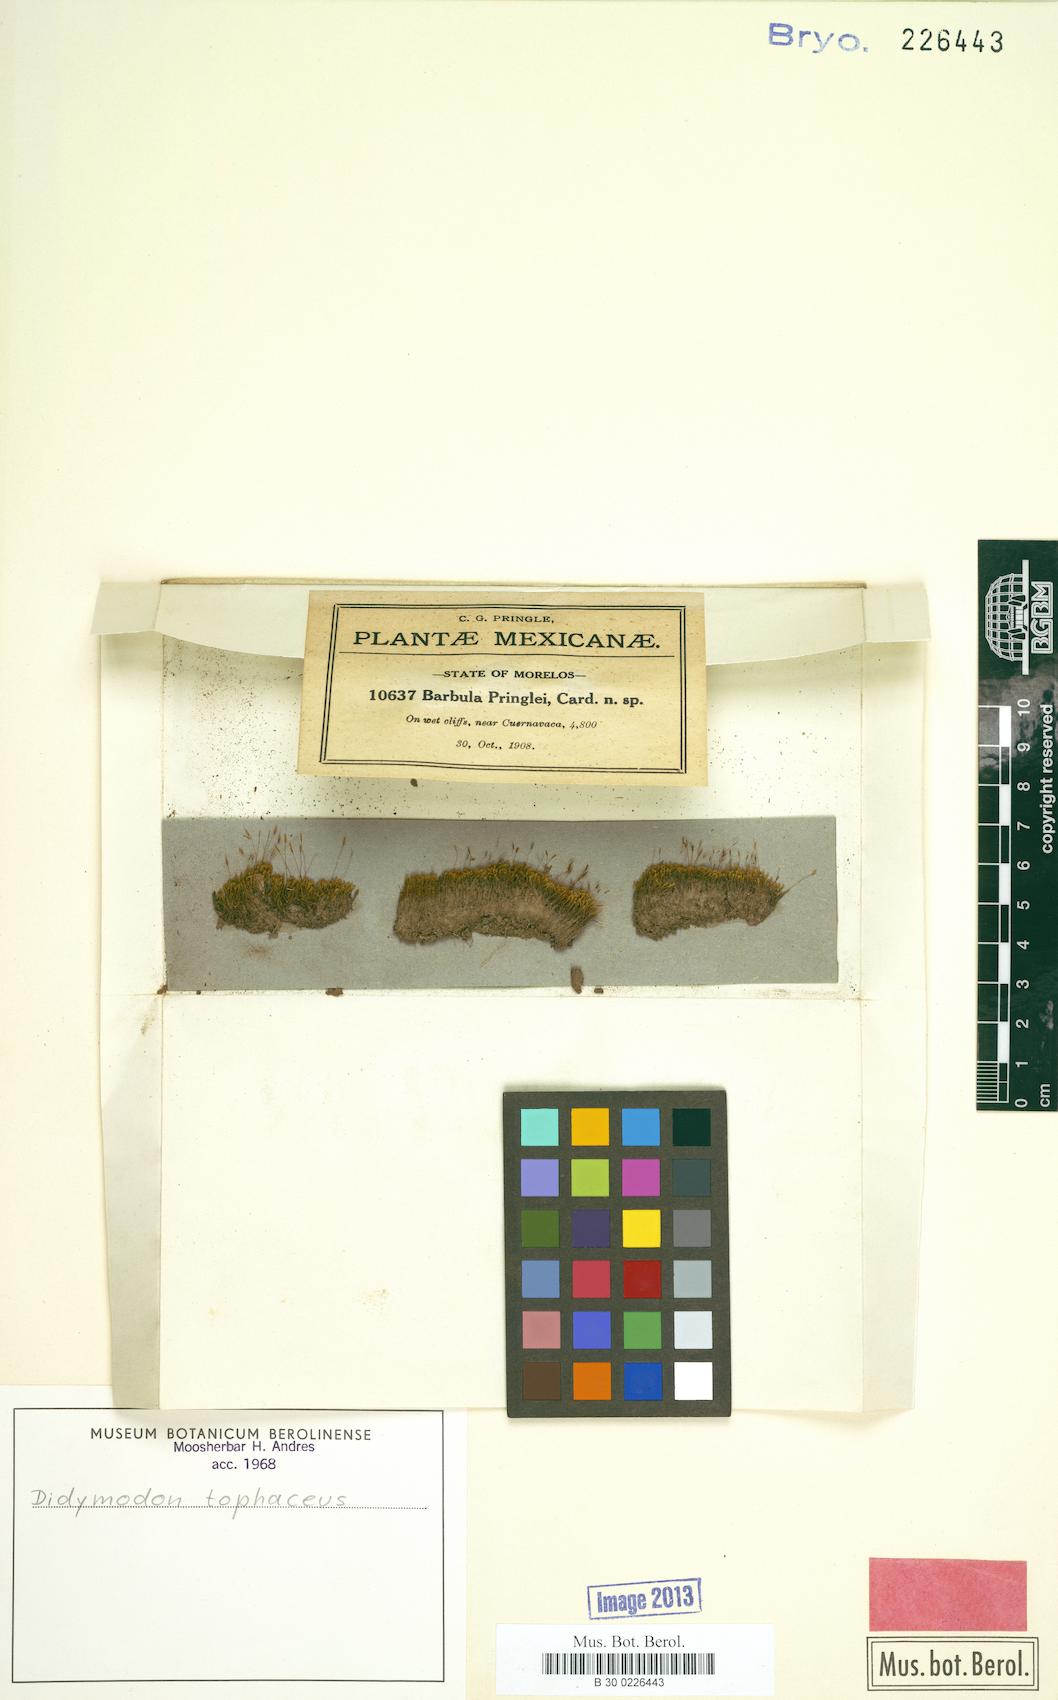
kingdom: Plantae
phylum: Bryophyta
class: Bryopsida
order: Pottiales
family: Pottiaceae
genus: Geheebia
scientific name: Geheebia tophacea
